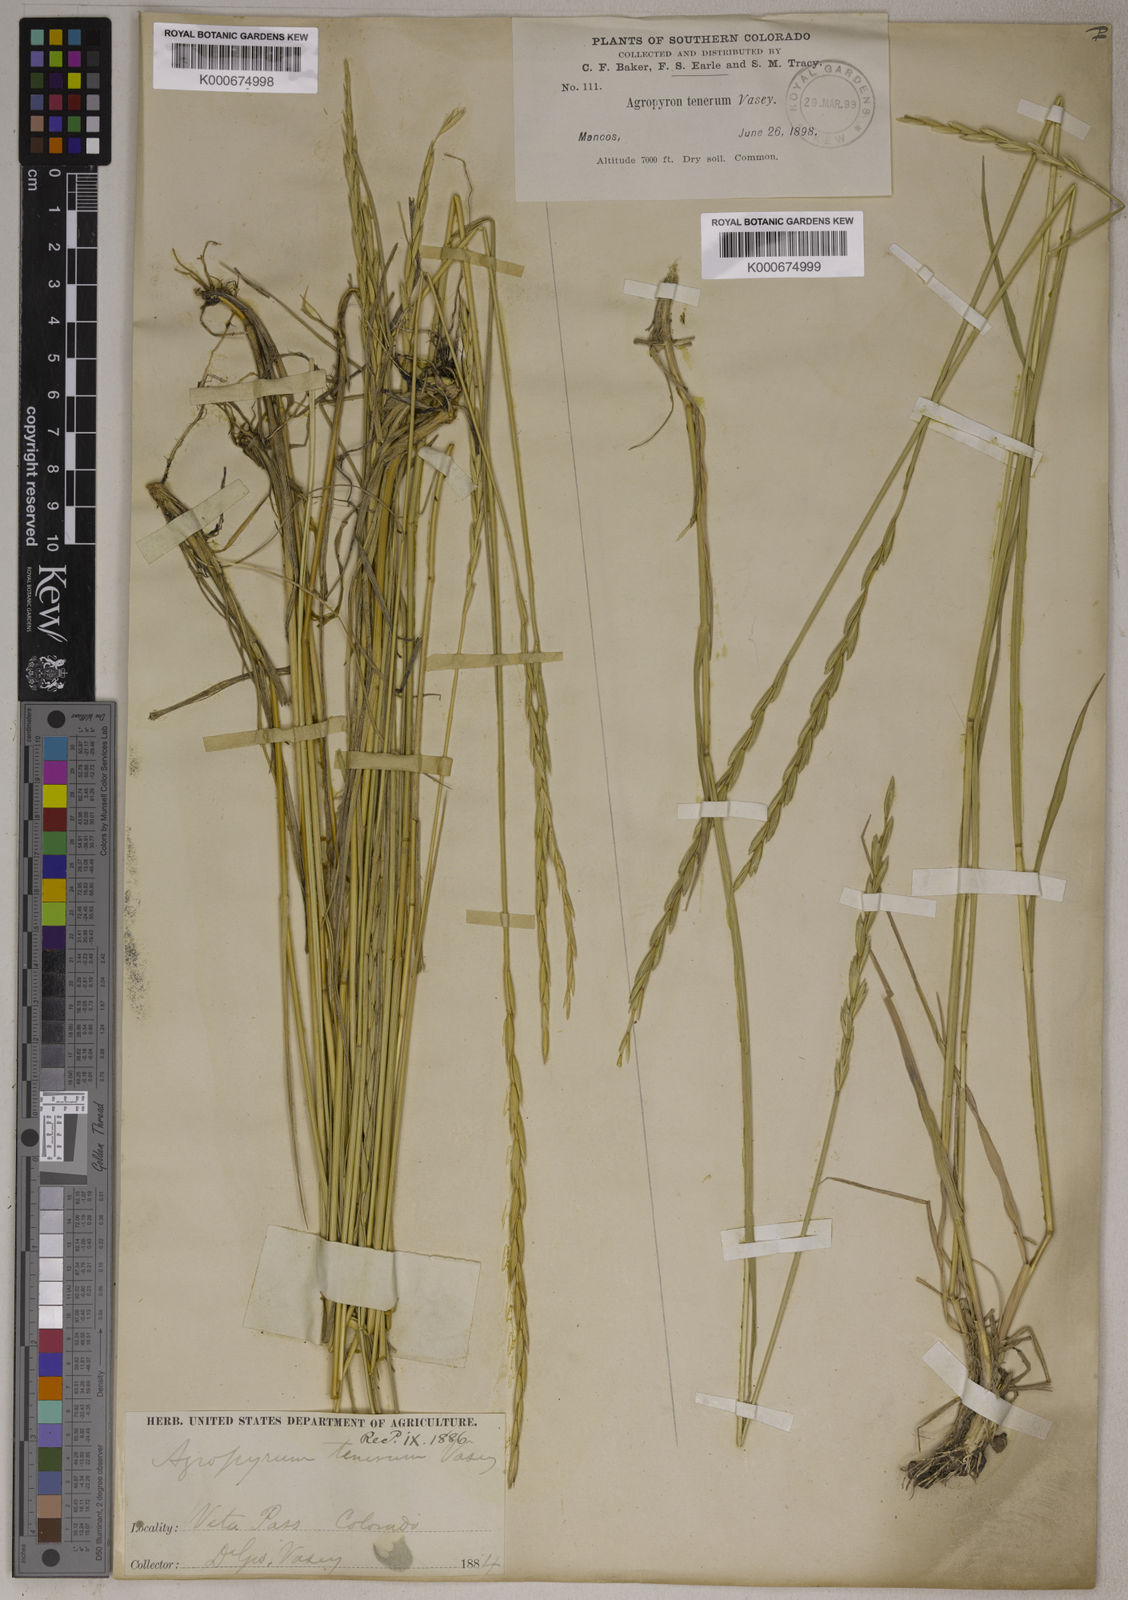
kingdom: Plantae
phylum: Tracheophyta
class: Liliopsida
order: Poales
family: Poaceae
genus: Elymus
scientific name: Elymus
